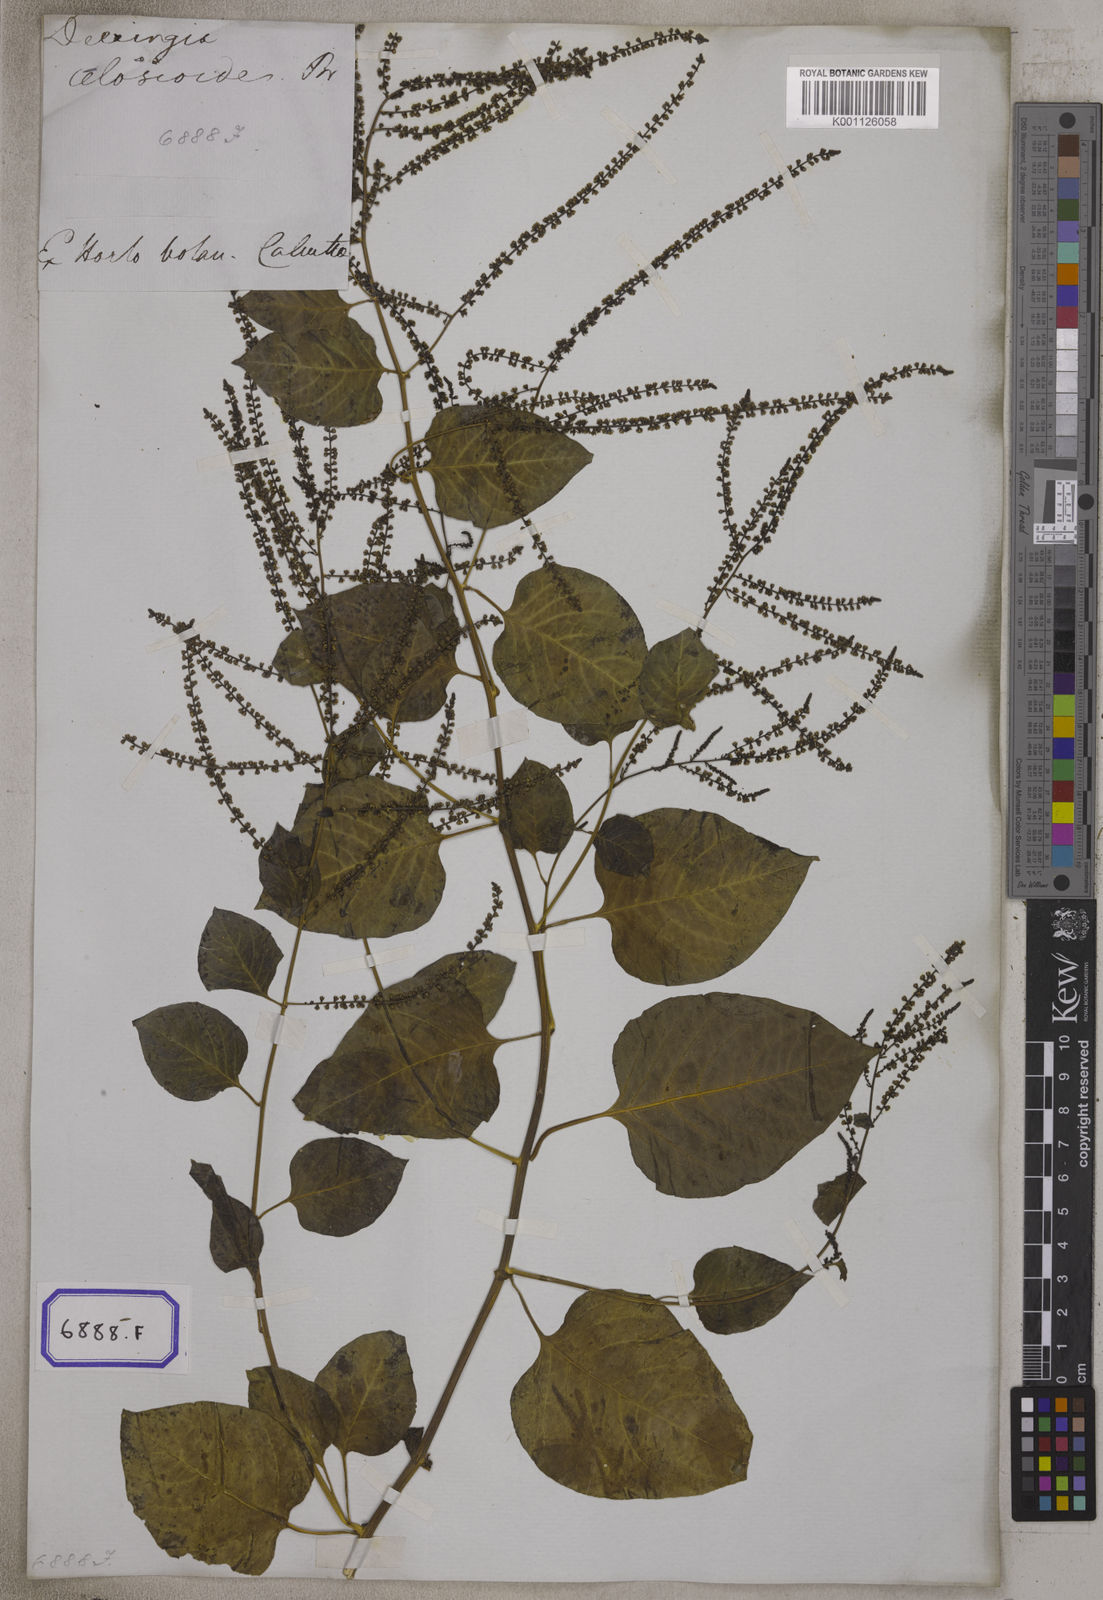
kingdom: Plantae
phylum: Tracheophyta
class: Magnoliopsida
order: Caryophyllales
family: Amaranthaceae
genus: Deeringia
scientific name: Deeringia amaranthoides
